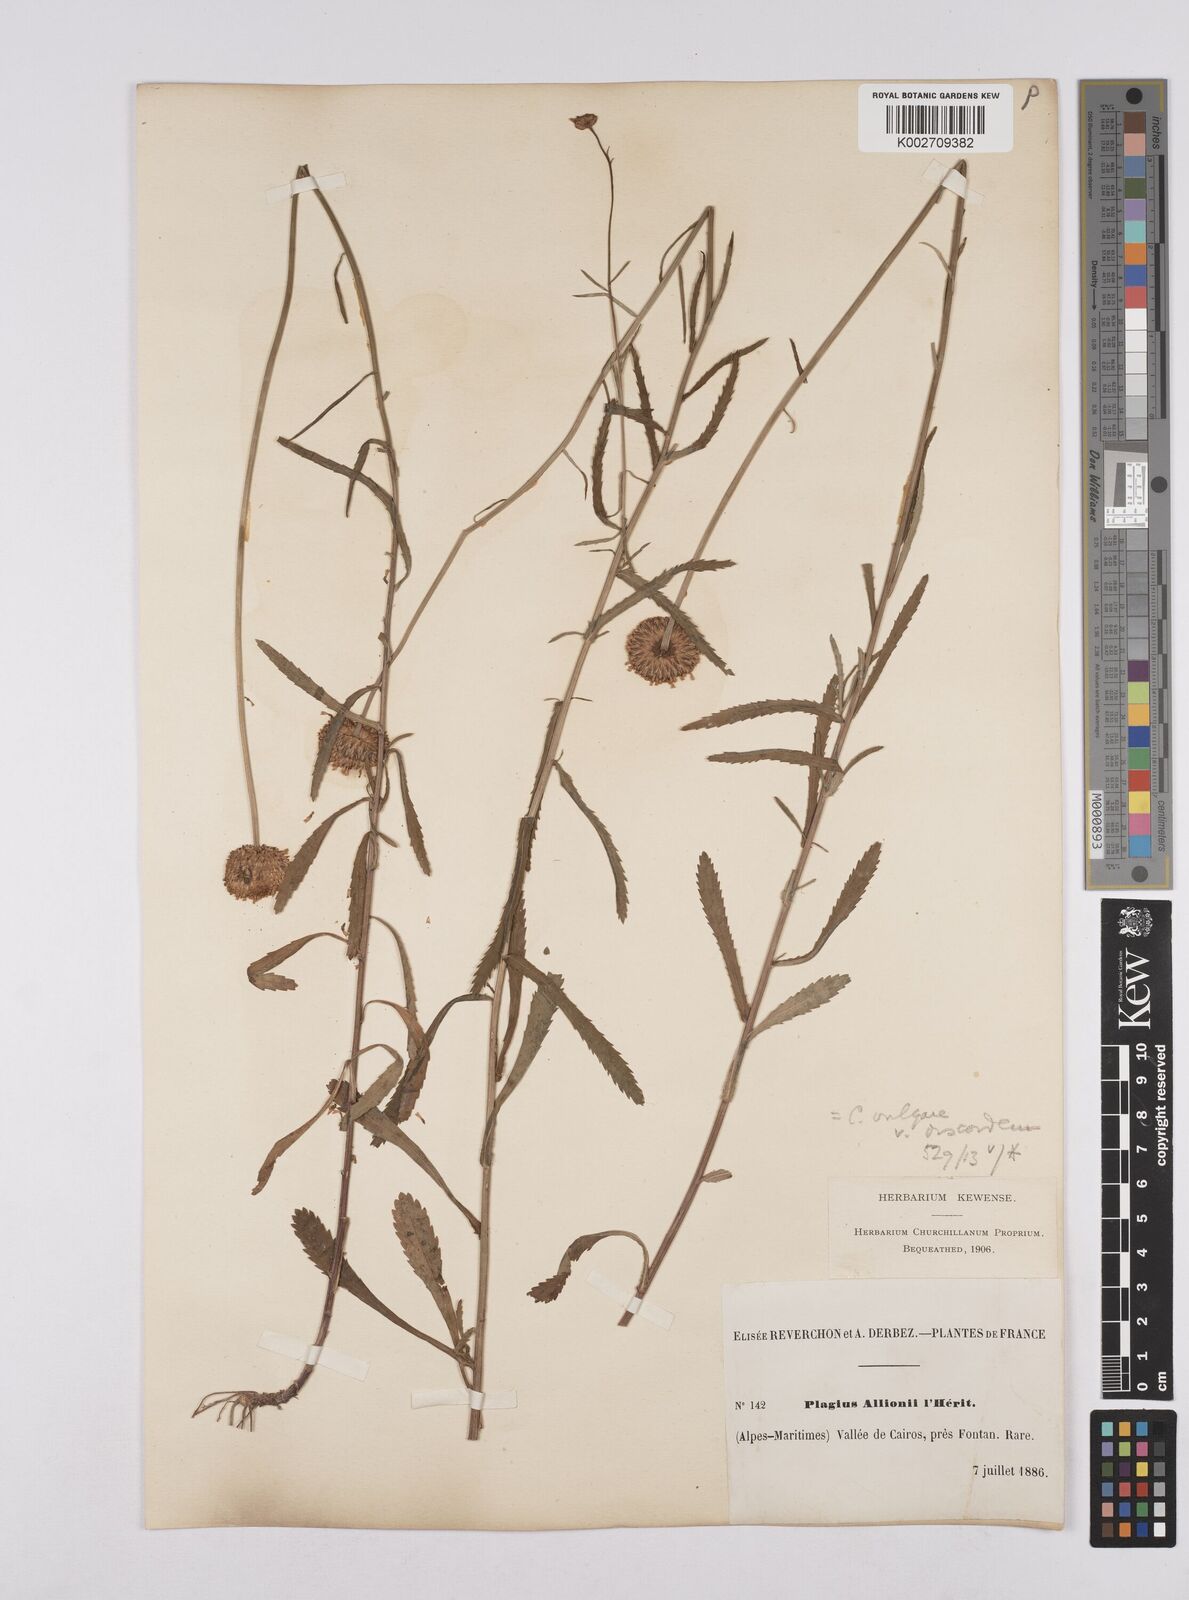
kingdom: Plantae
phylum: Tracheophyta
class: Magnoliopsida
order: Asterales
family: Asteraceae
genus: Leucanthemum
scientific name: Leucanthemum vulgare
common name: Oxeye daisy
